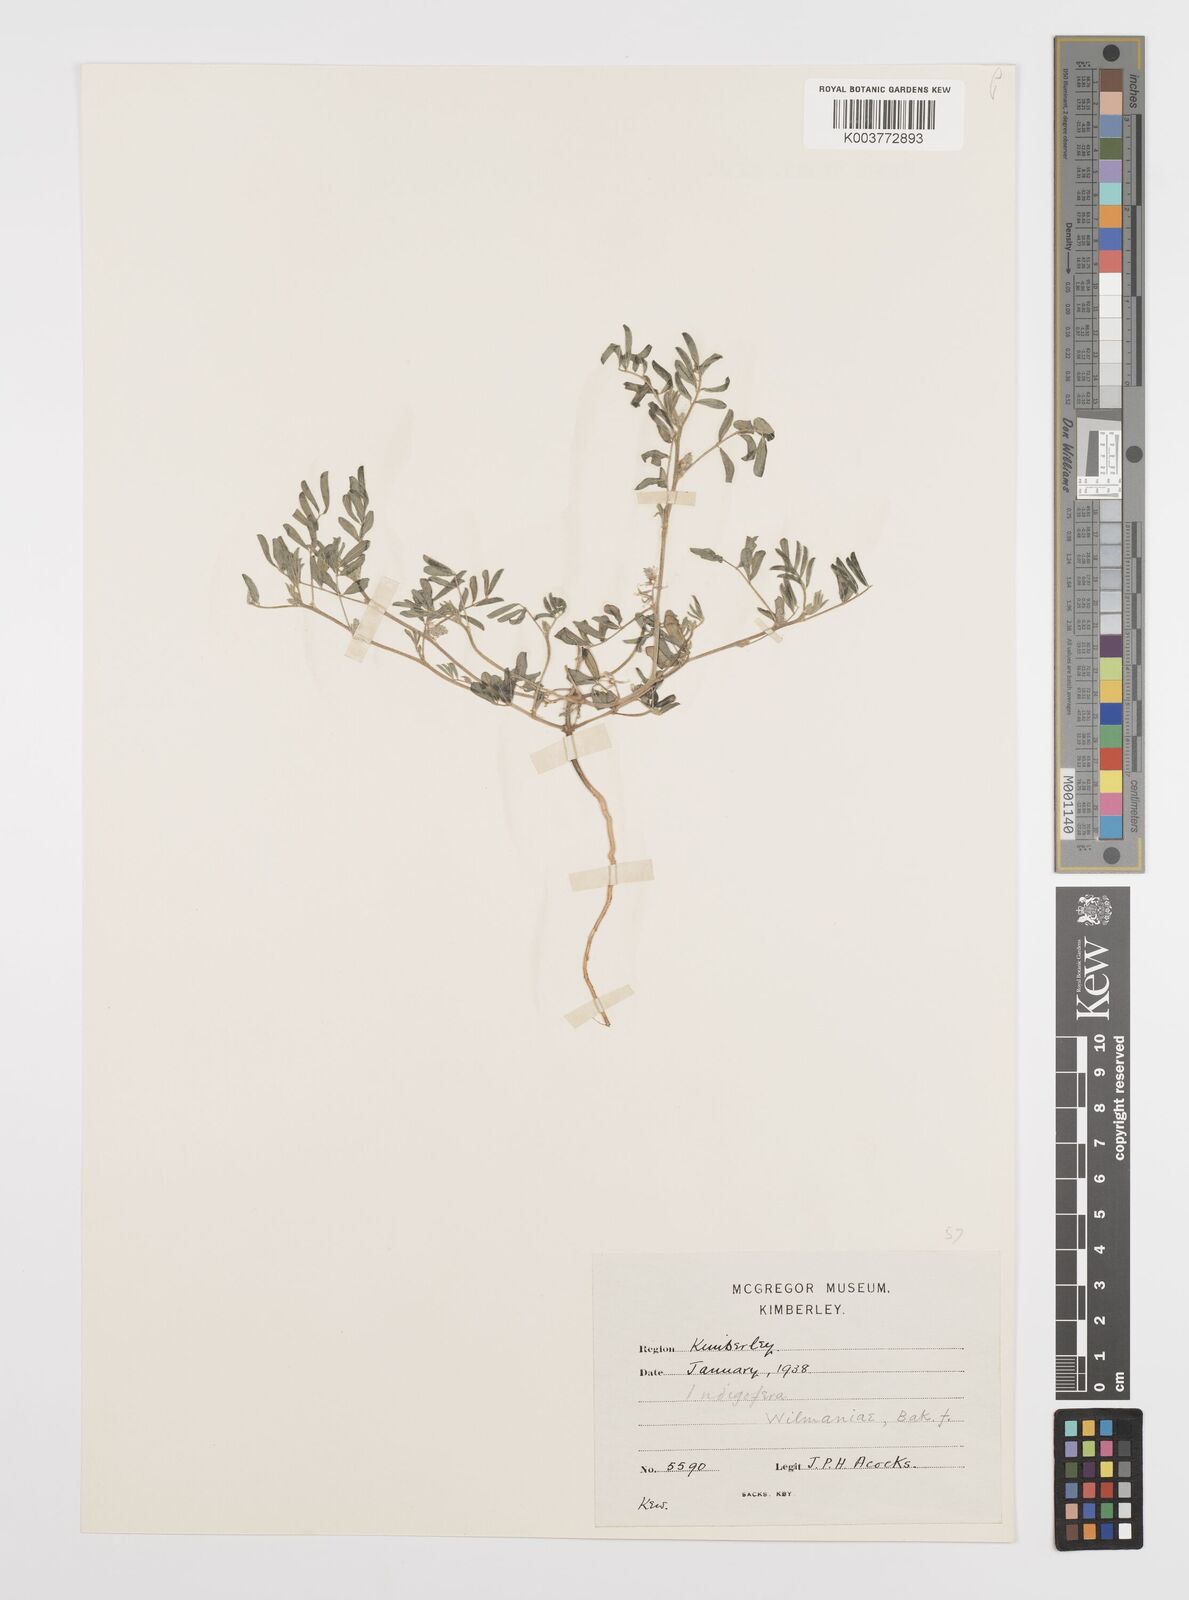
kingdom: Plantae
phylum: Tracheophyta
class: Magnoliopsida
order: Fabales
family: Fabaceae
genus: Indigofera
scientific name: Indigofera damarana
